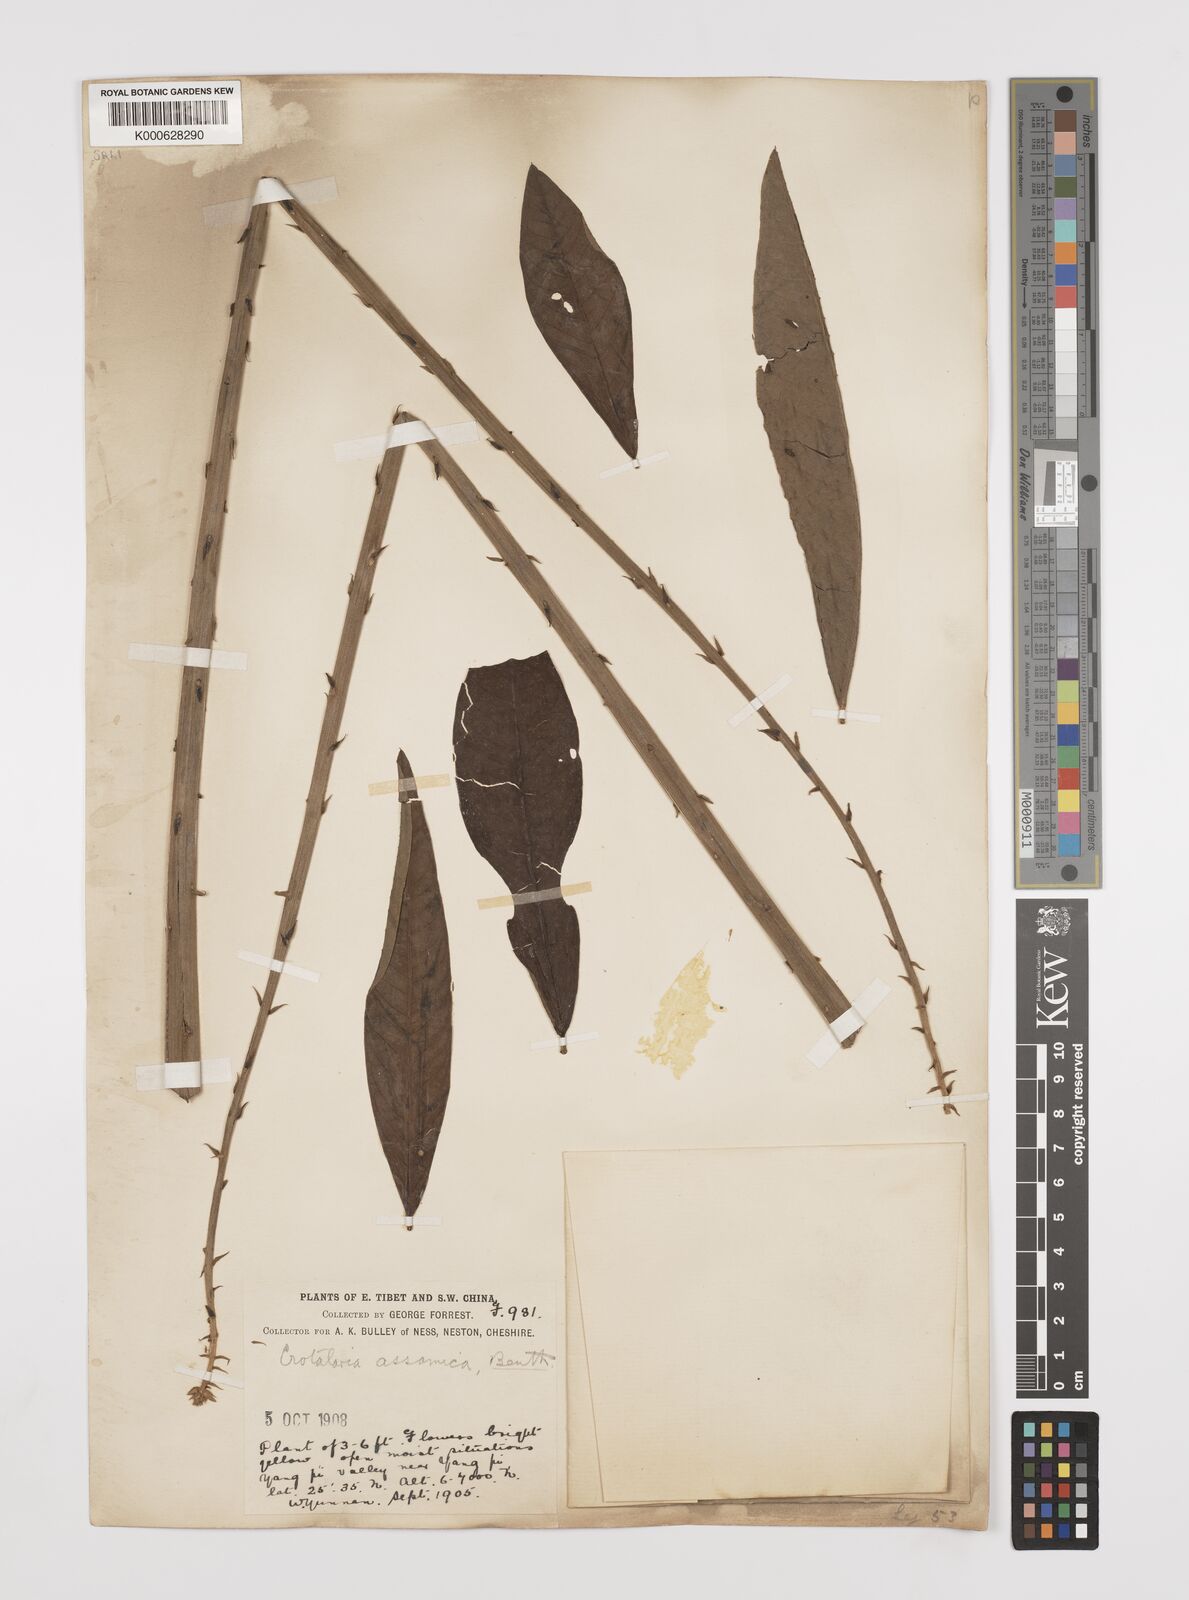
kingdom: Plantae
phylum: Tracheophyta
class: Magnoliopsida
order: Fabales
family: Fabaceae
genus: Crotalaria
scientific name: Crotalaria sericea
